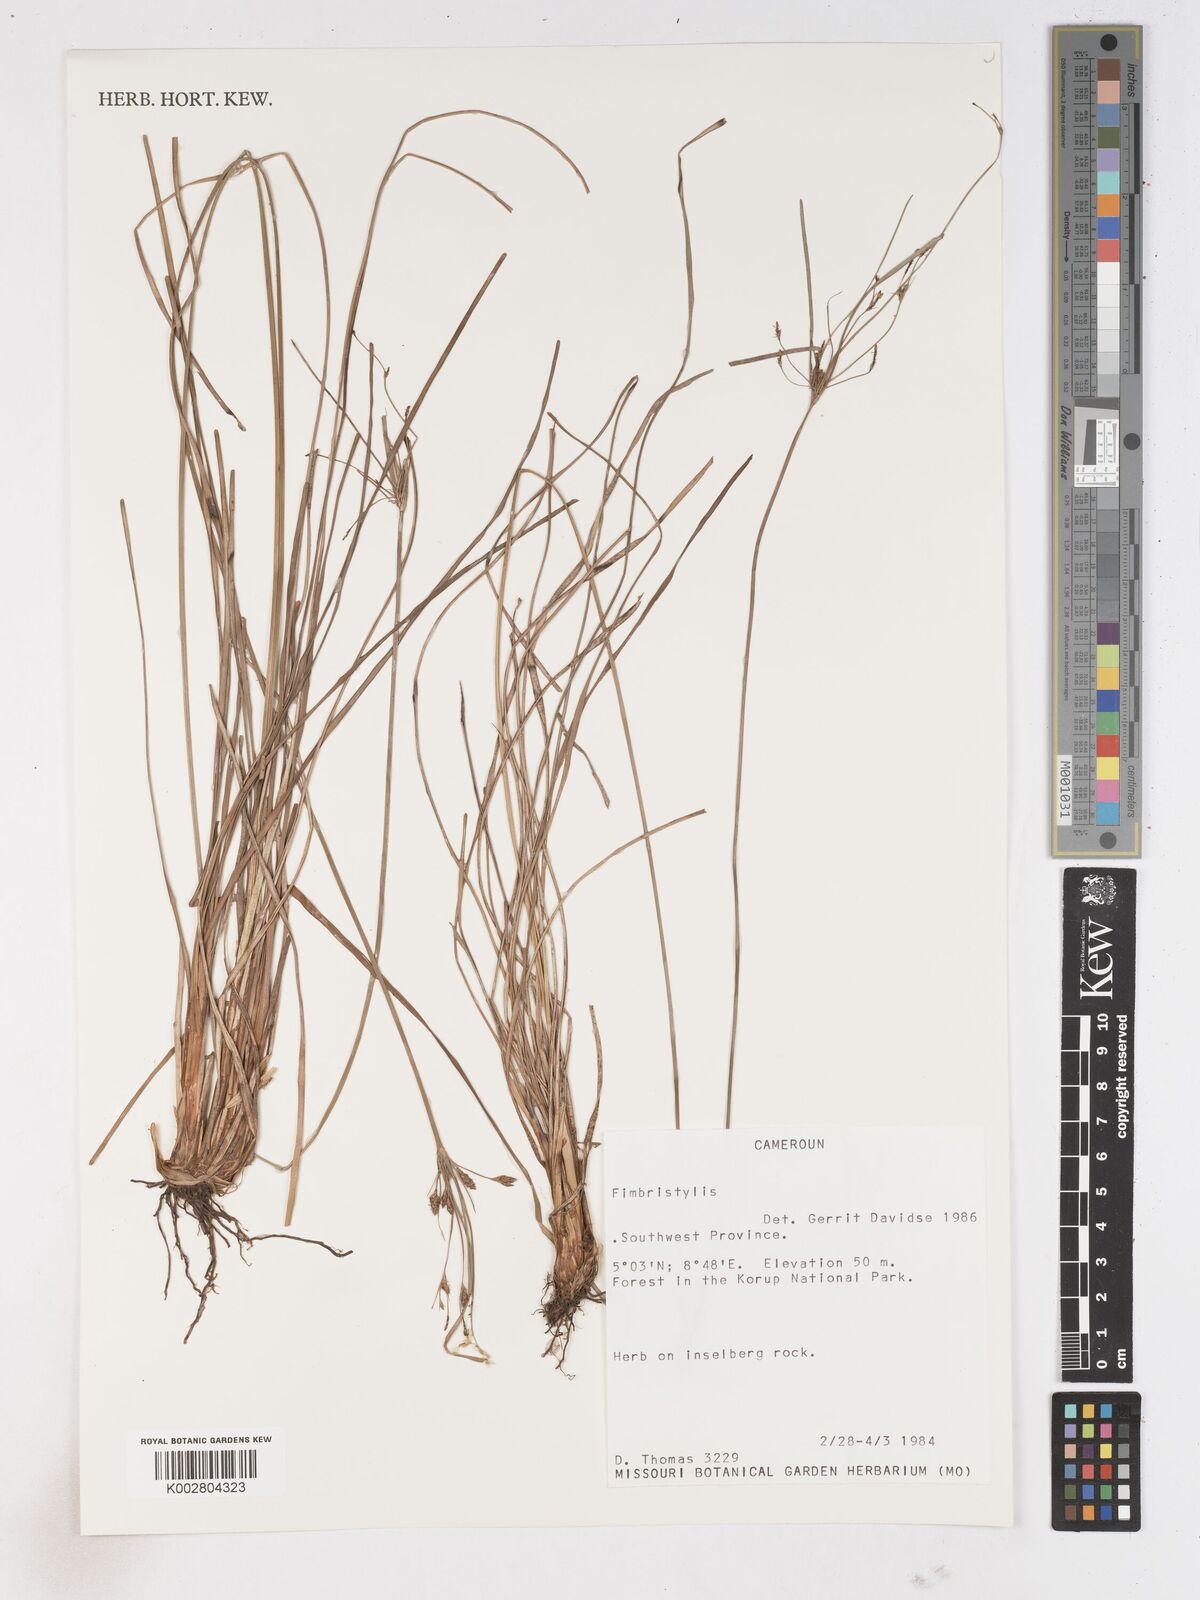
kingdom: Plantae
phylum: Tracheophyta
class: Liliopsida
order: Poales
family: Cyperaceae
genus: Fimbristylis
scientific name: Fimbristylis
